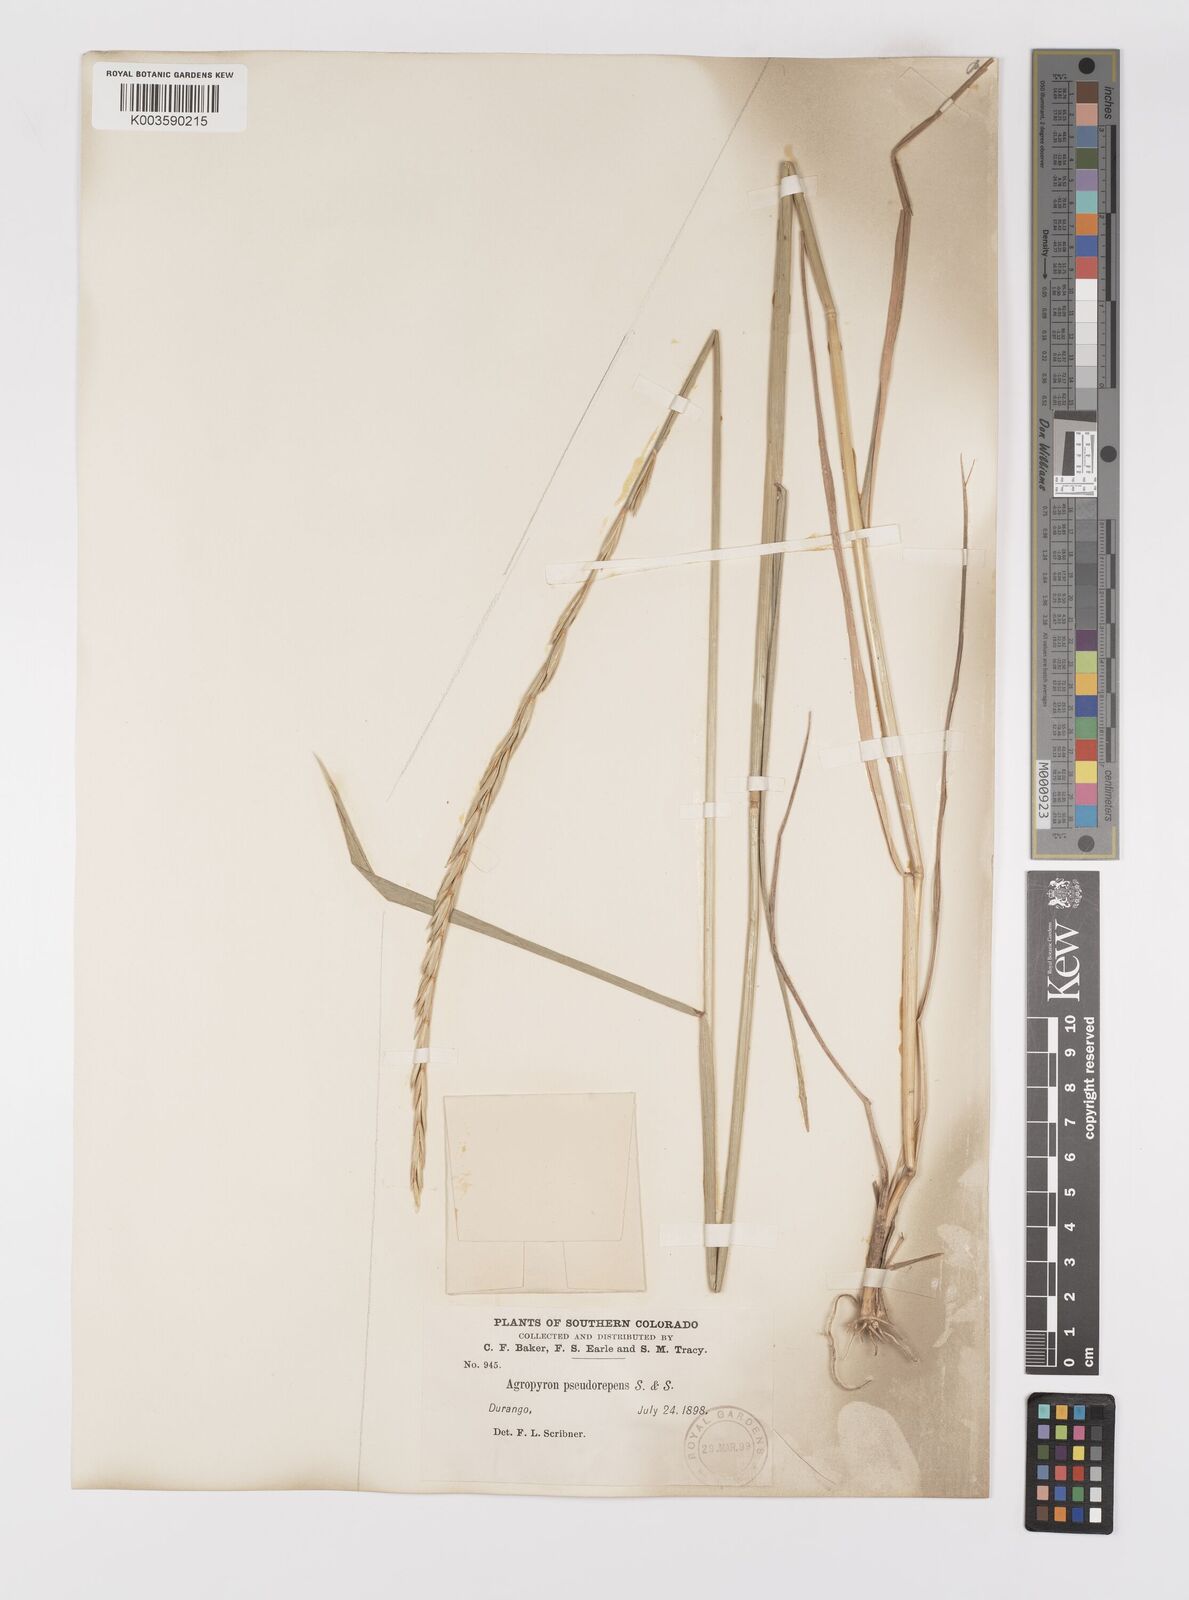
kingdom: Plantae
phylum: Tracheophyta
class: Liliopsida
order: Poales
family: Poaceae
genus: Elymus
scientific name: Elymus violaceus
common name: Arctic wheatgrass
